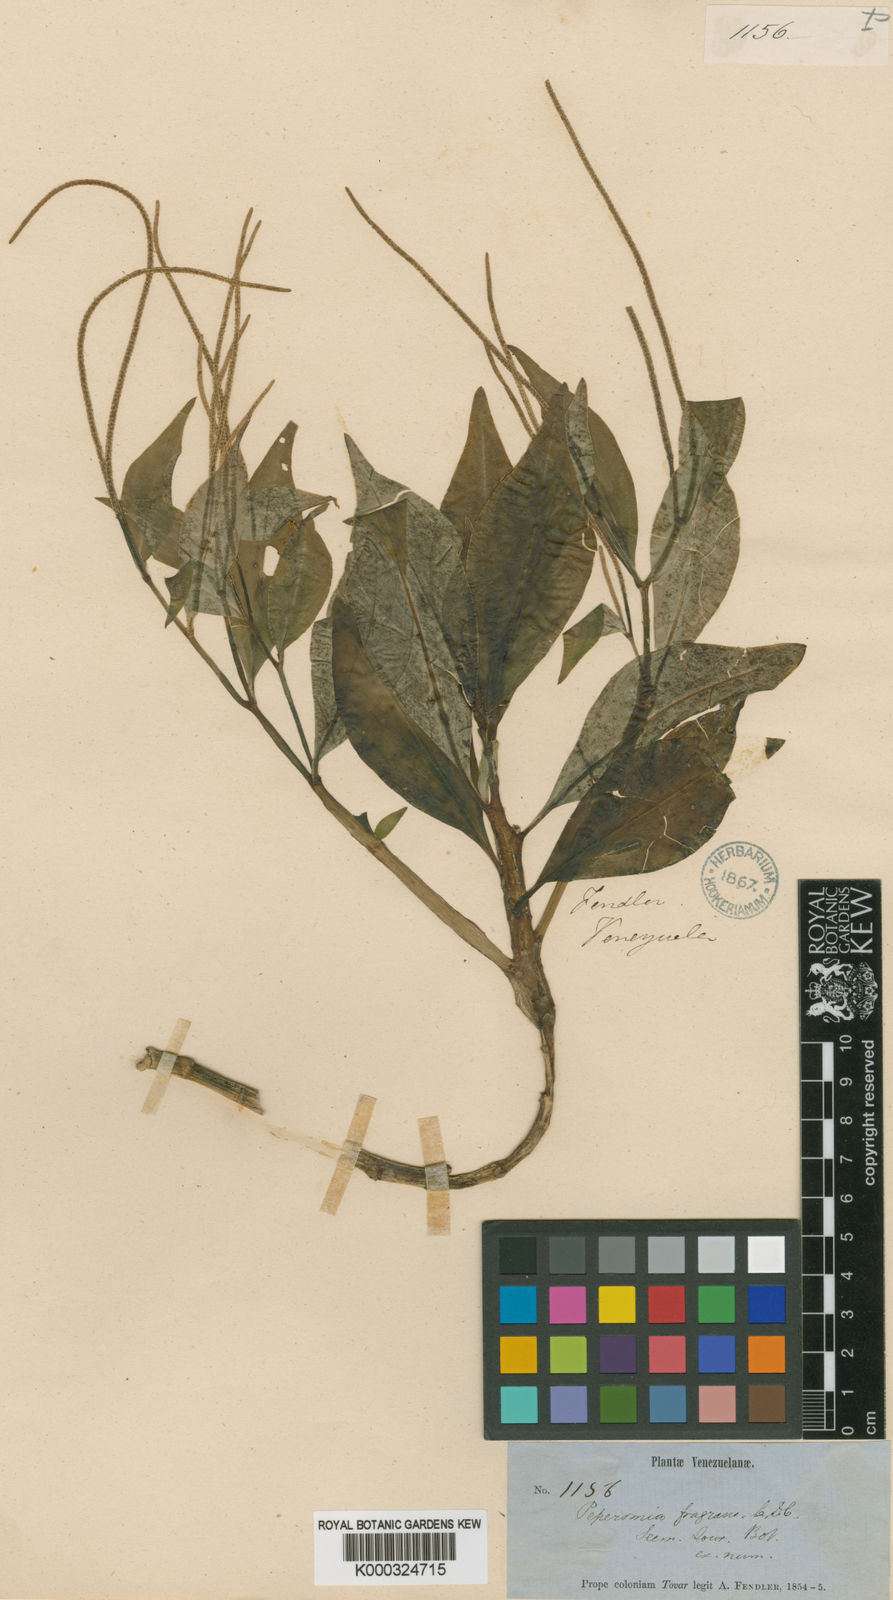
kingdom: Plantae
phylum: Tracheophyta
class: Magnoliopsida
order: Piperales
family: Piperaceae
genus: Peperomia
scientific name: Peperomia fragrans
